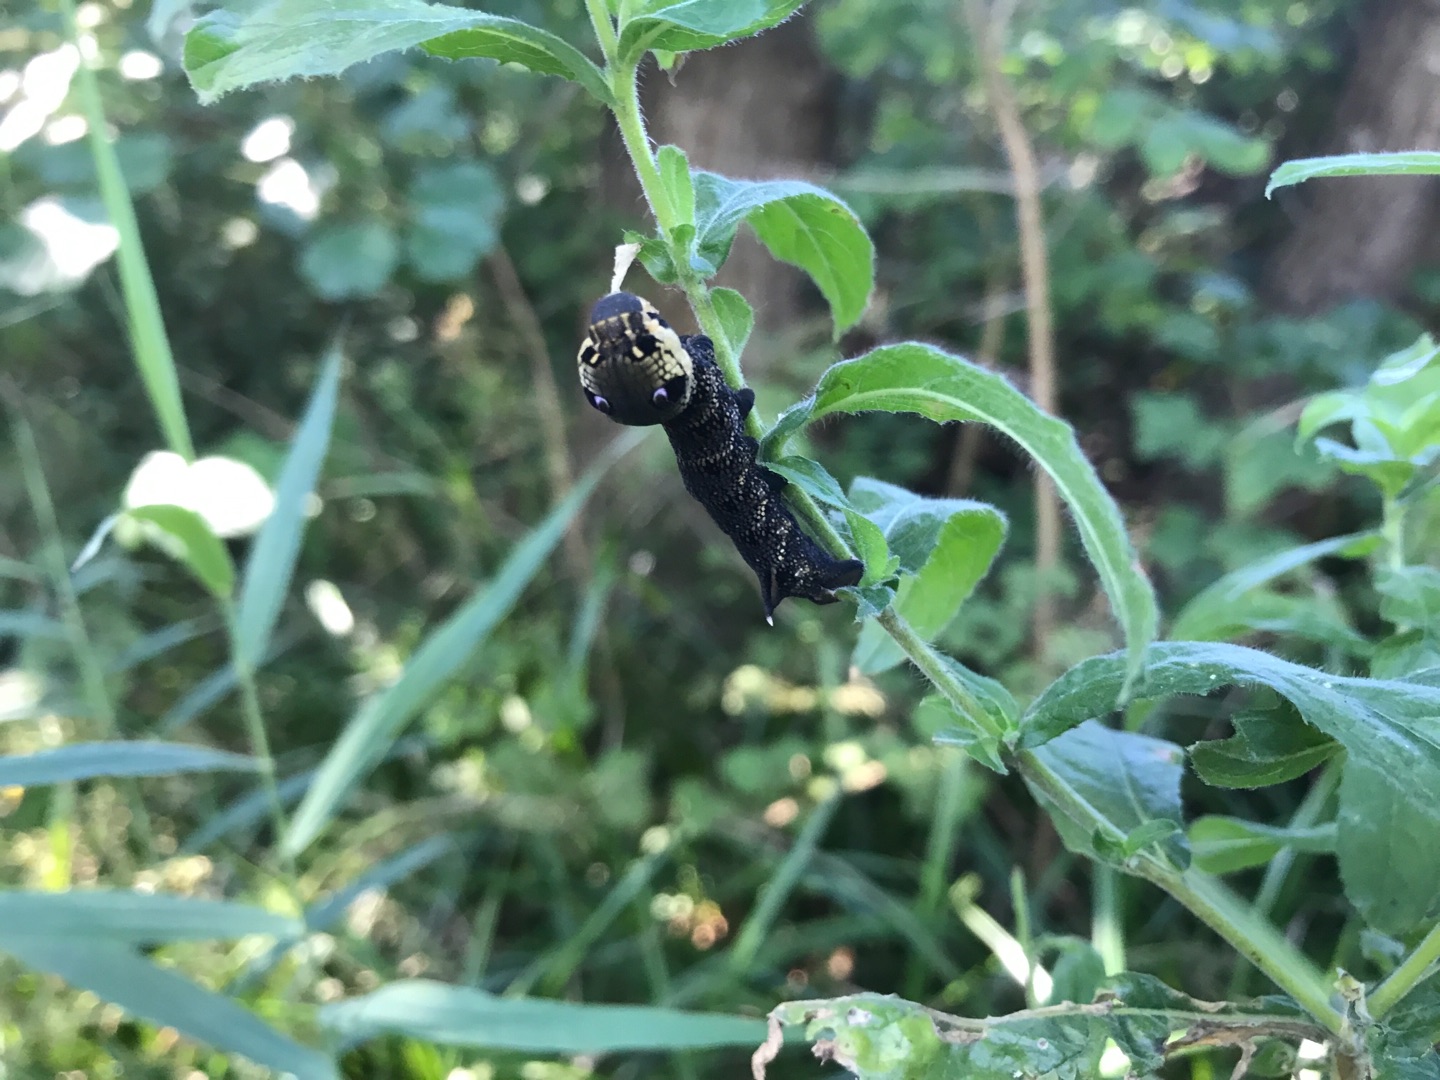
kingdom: Animalia
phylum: Arthropoda
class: Insecta
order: Lepidoptera
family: Sphingidae
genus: Deilephila
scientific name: Deilephila elpenor
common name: Dueurtsværmer
